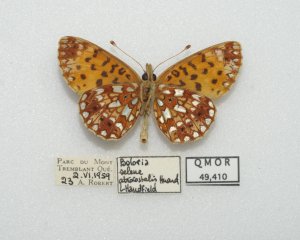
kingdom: Animalia
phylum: Arthropoda
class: Insecta
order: Lepidoptera
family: Nymphalidae
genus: Boloria
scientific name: Boloria selene
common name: Silver-bordered Fritillary
